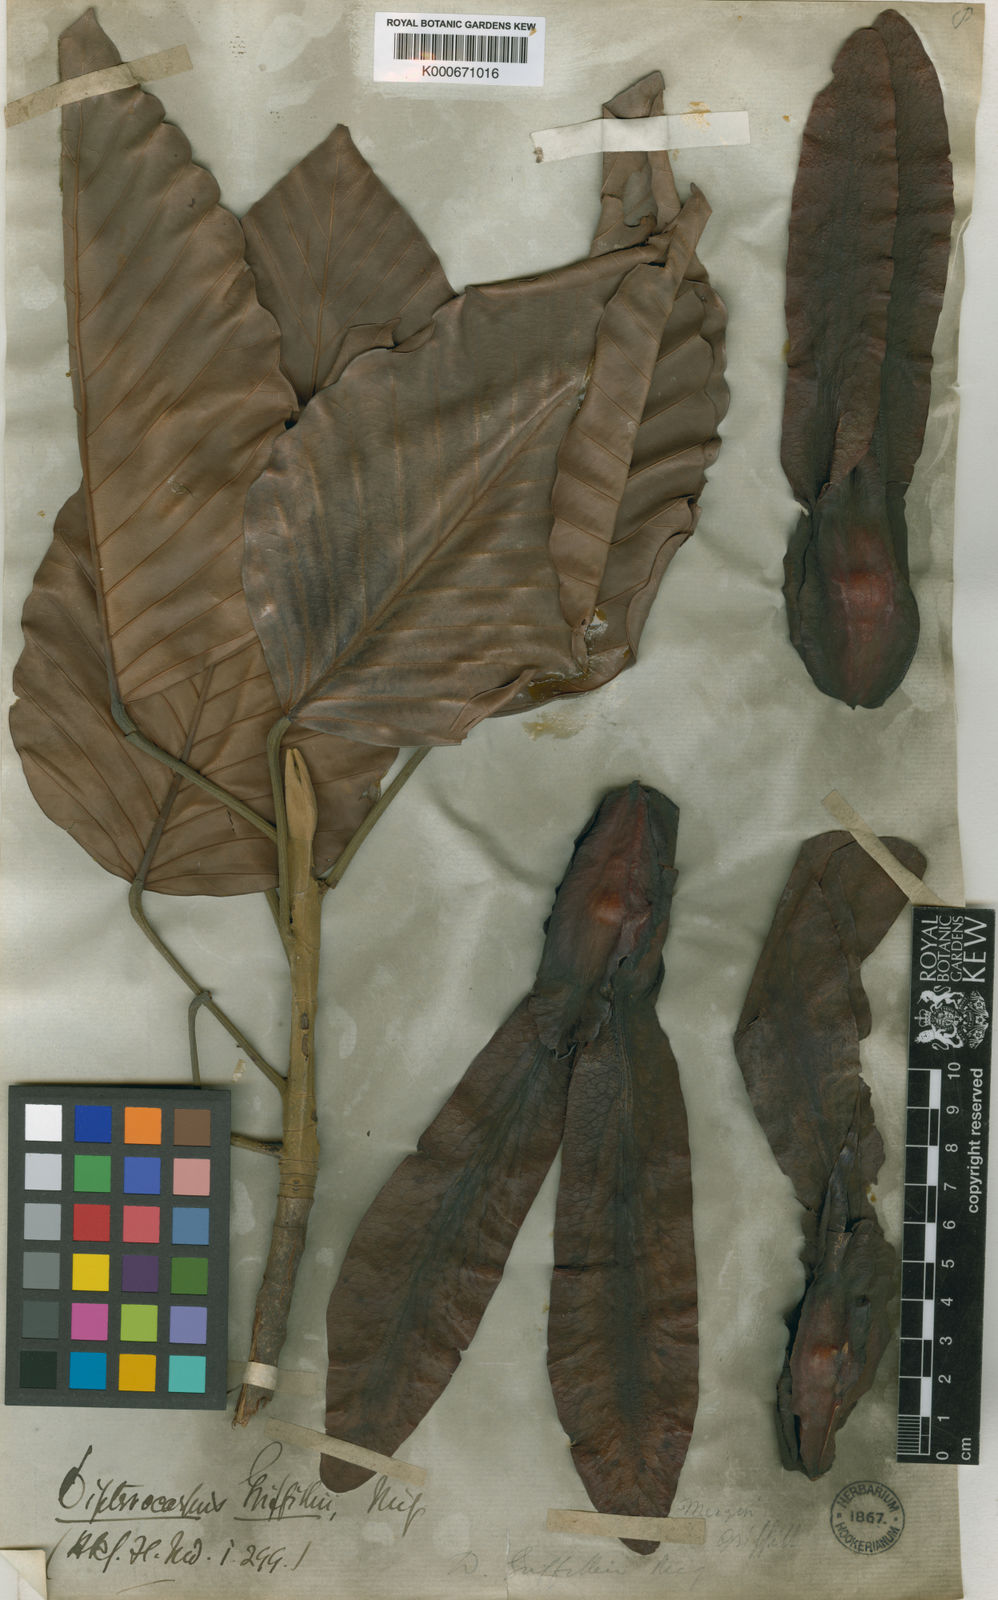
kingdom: Plantae
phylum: Tracheophyta
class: Magnoliopsida
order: Malvales
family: Dipterocarpaceae
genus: Dipterocarpus
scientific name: Dipterocarpus grandiflorus
